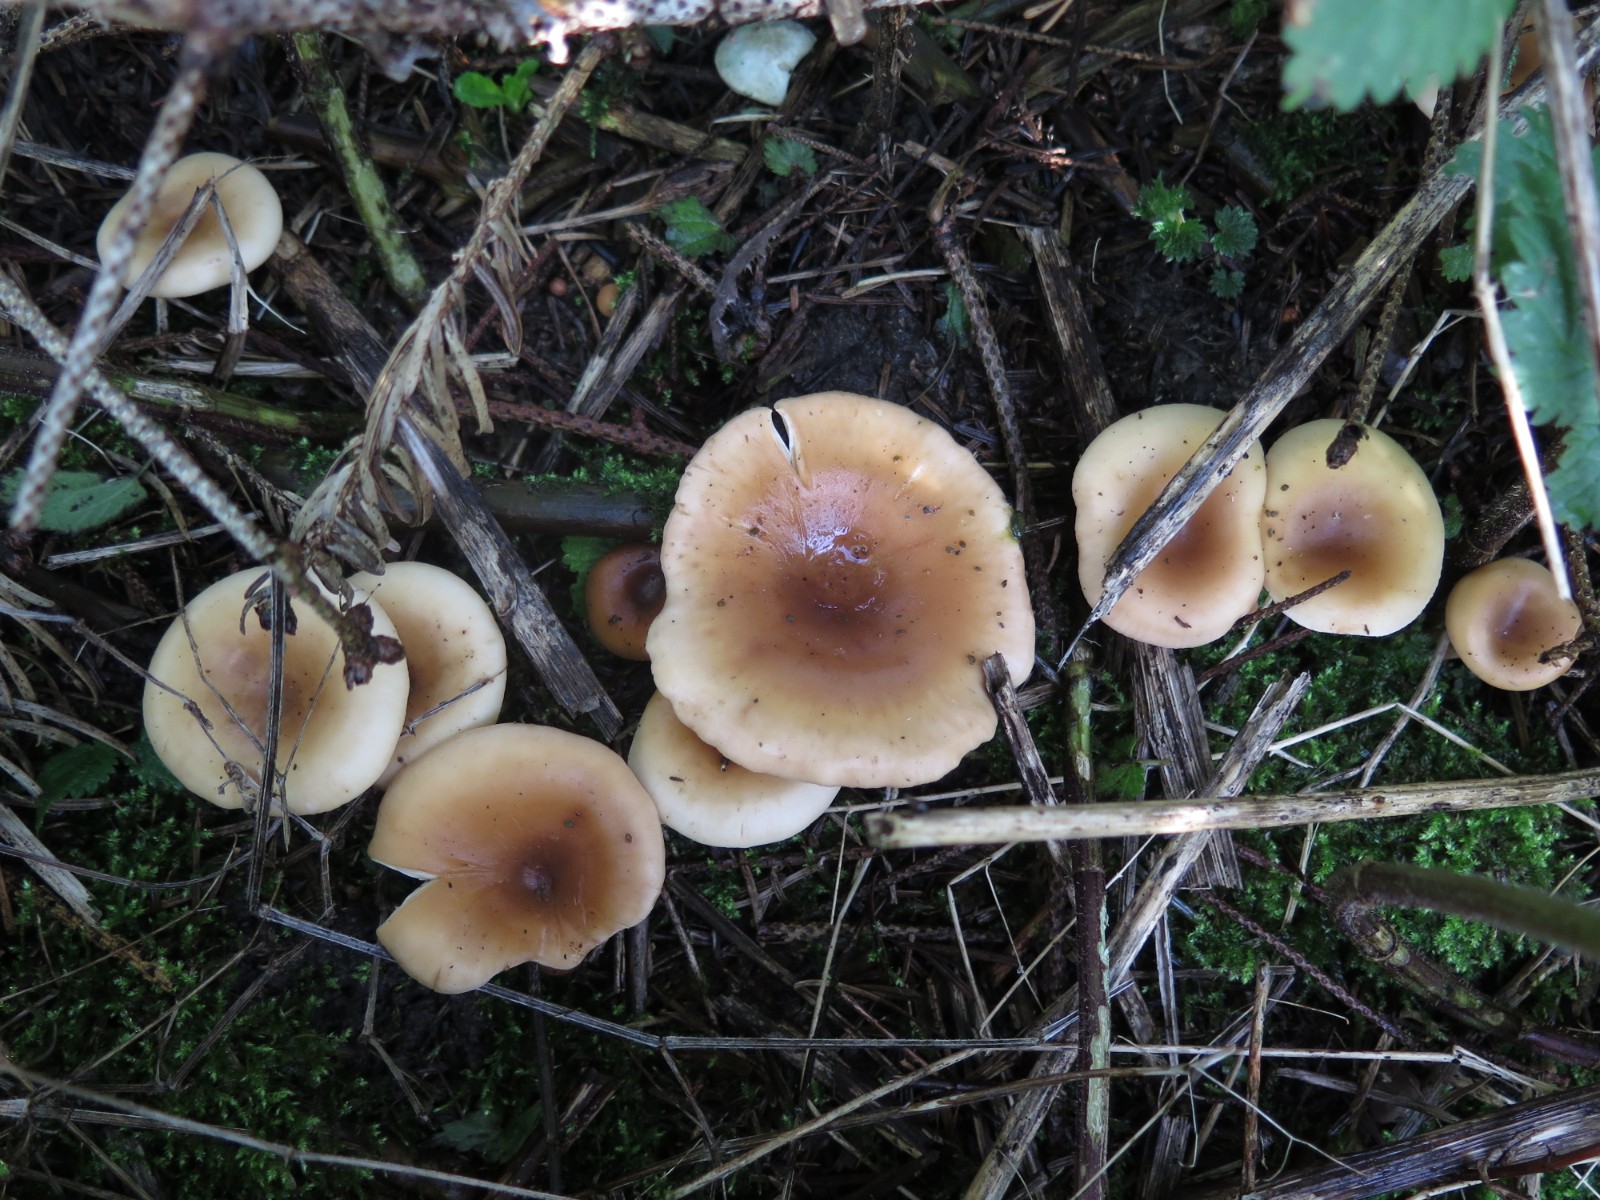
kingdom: Fungi
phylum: Basidiomycota
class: Agaricomycetes
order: Agaricales
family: Tricholomataceae
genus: Paralepista
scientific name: Paralepista flaccida
